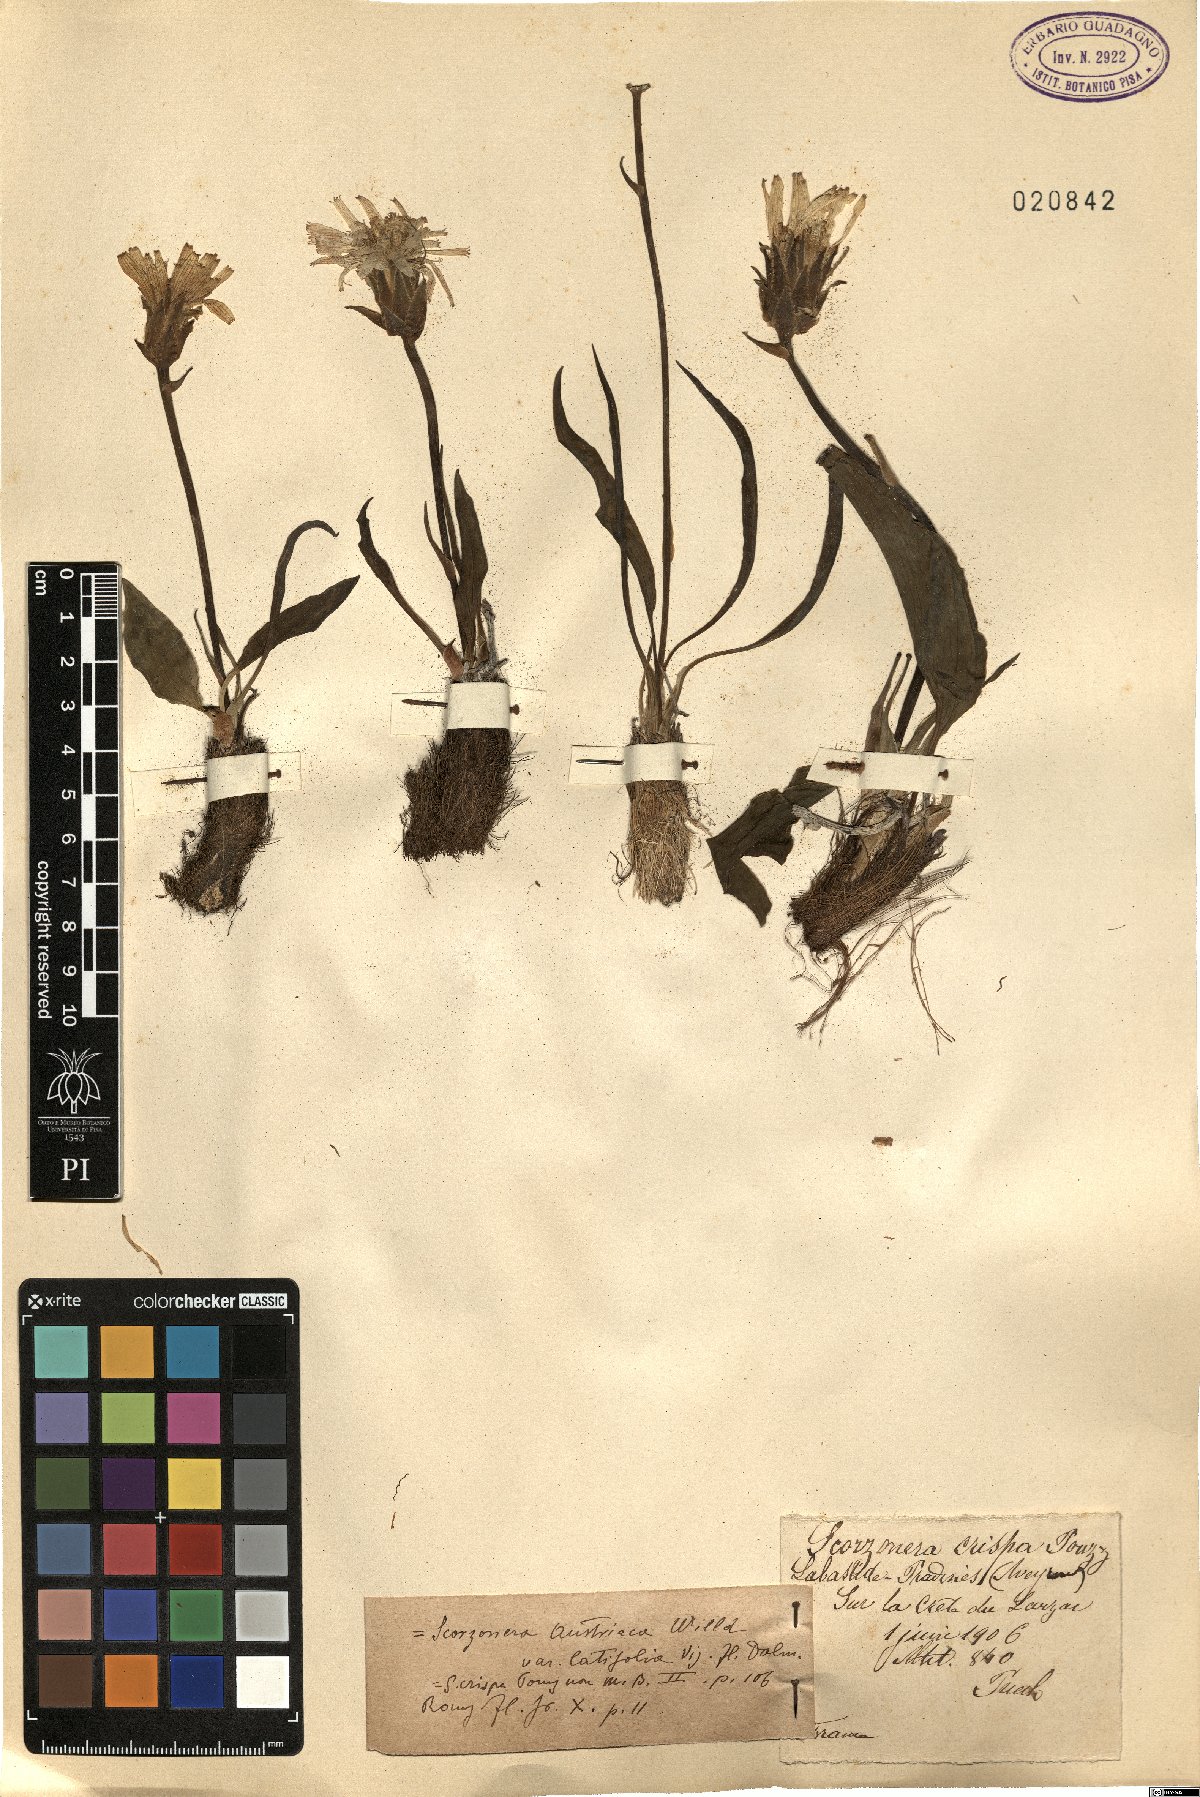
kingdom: Plantae
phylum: Tracheophyta
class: Magnoliopsida
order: Asterales
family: Asteraceae
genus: Takhtajaniantha
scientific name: Takhtajaniantha crispa
